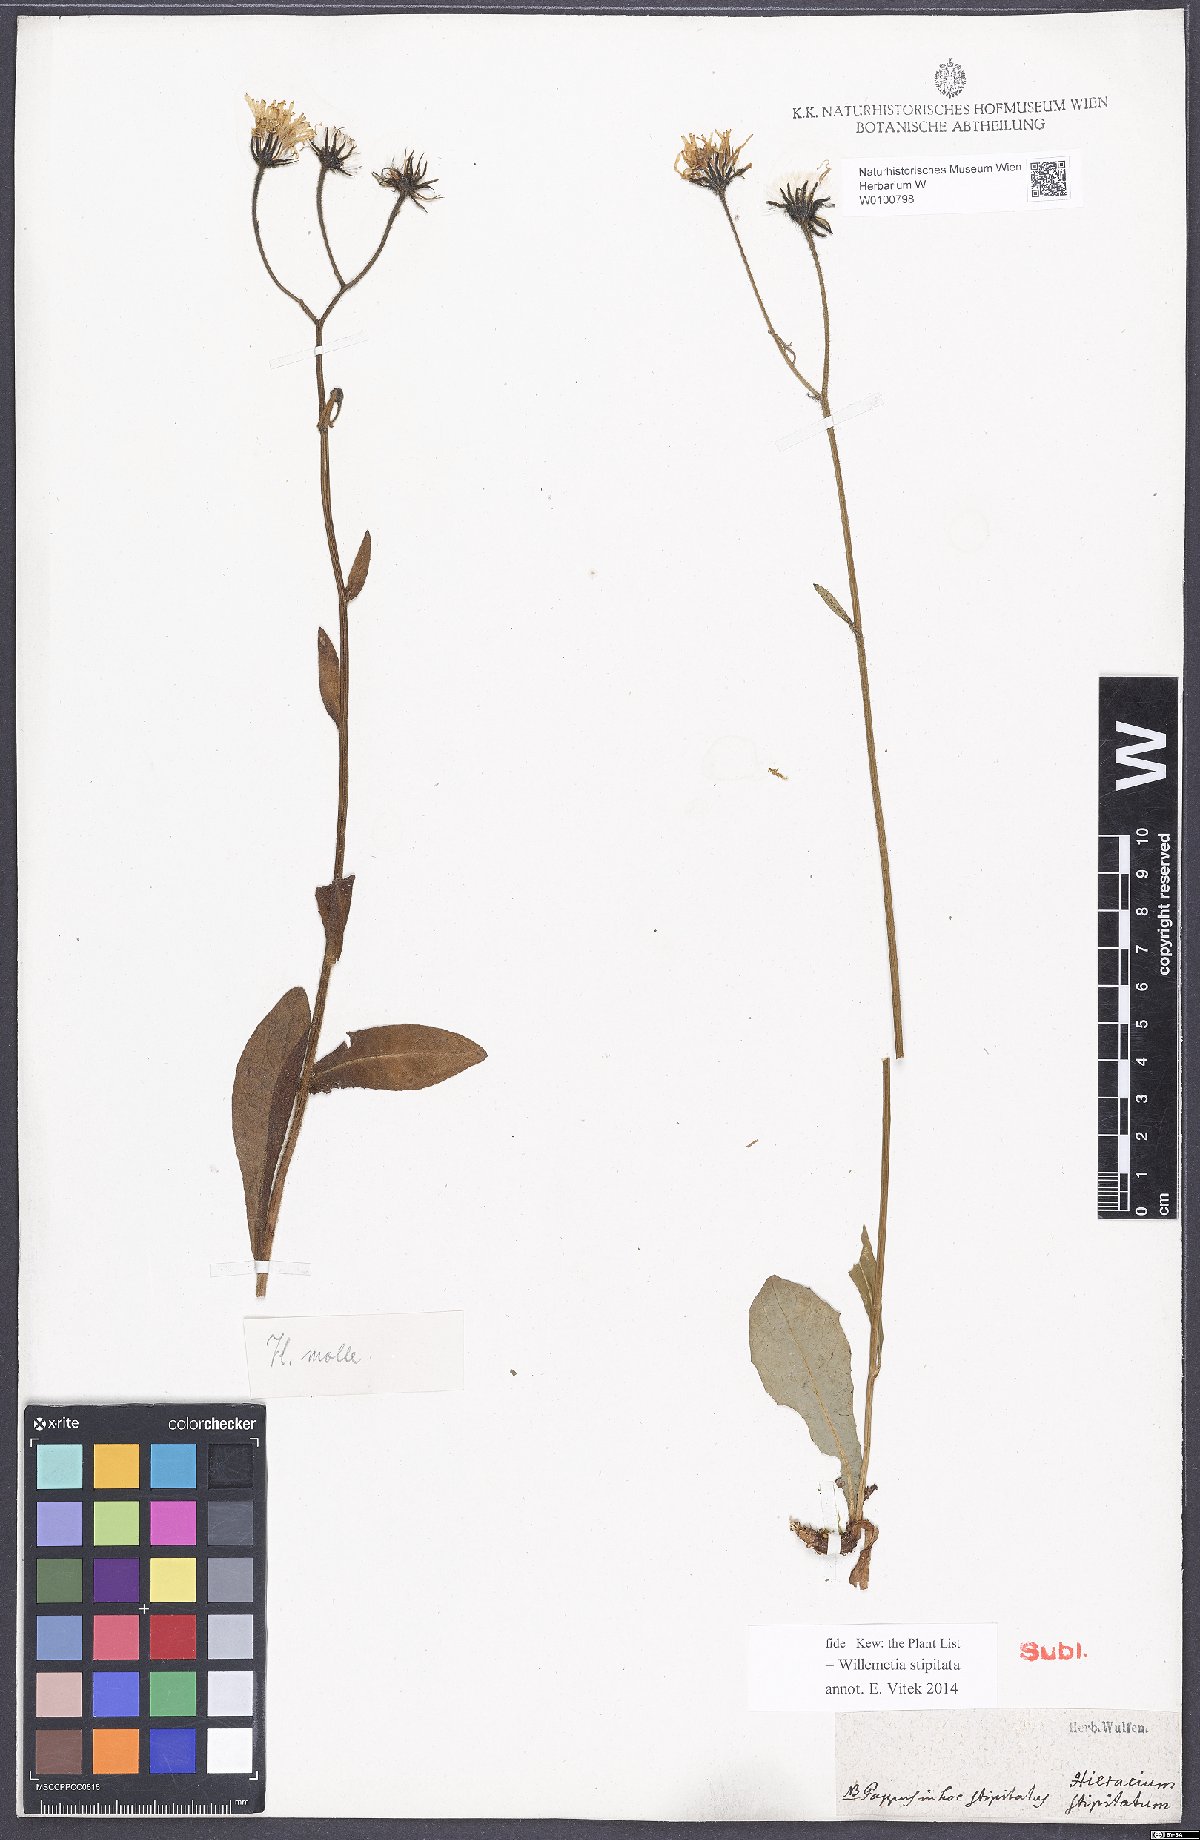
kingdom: Plantae
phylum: Tracheophyta
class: Magnoliopsida
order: Asterales
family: Asteraceae
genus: Willemetia
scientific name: Willemetia stipitata
